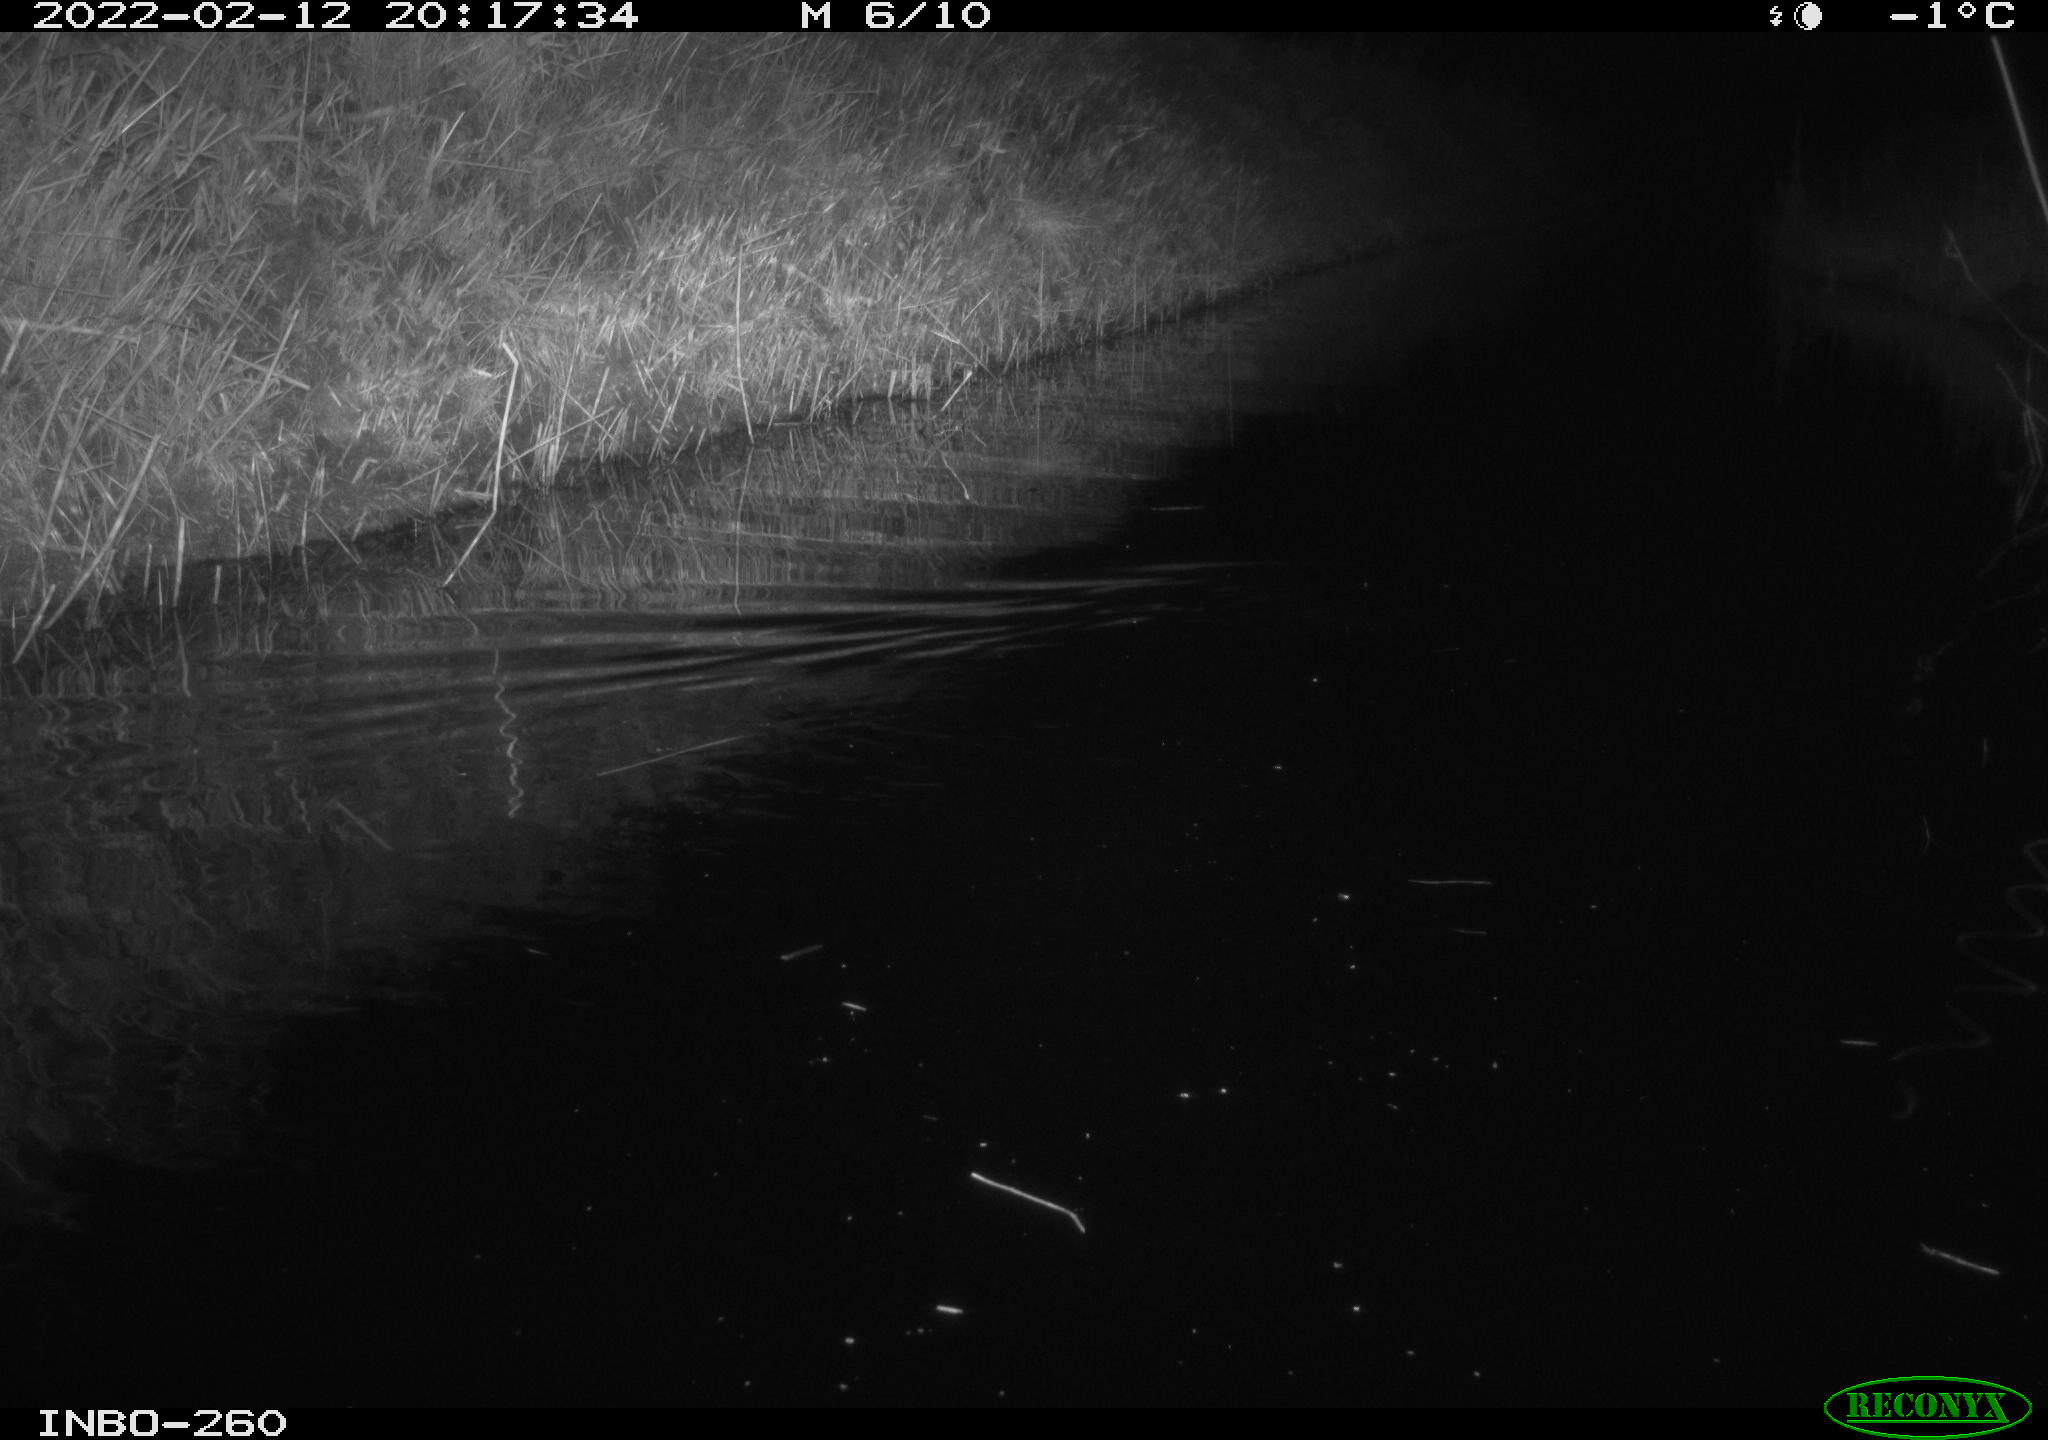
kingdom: Animalia
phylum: Chordata
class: Mammalia
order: Rodentia
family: Cricetidae
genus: Ondatra
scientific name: Ondatra zibethicus
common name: Muskrat
